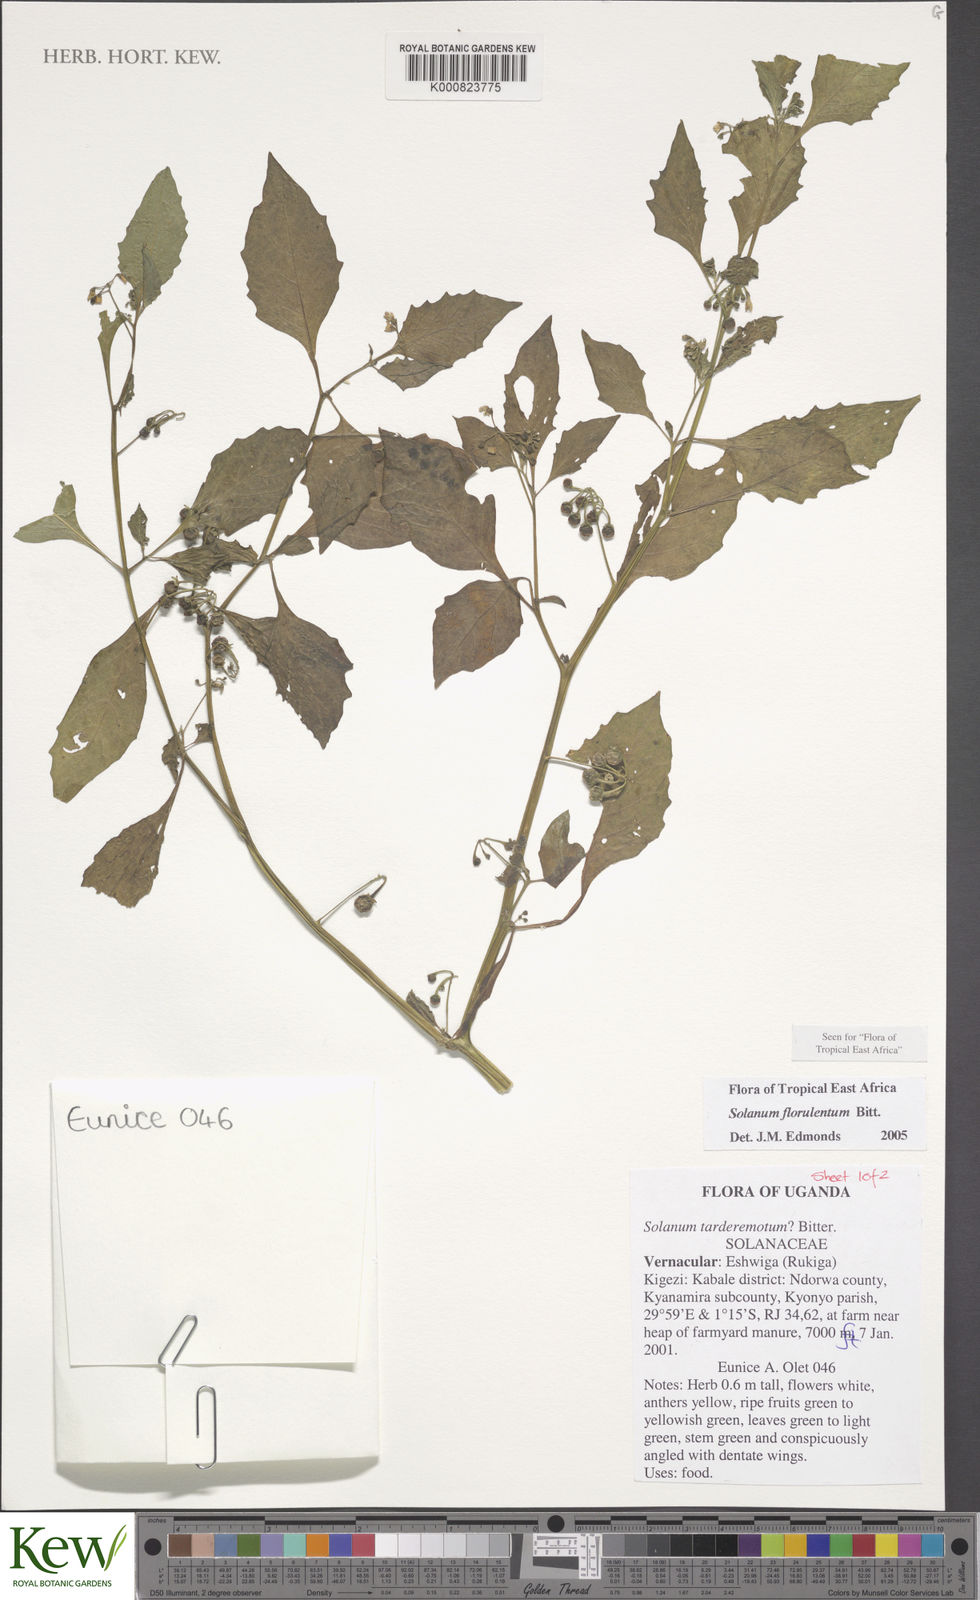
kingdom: Plantae
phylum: Tracheophyta
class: Magnoliopsida
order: Solanales
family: Solanaceae
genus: Solanum
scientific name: Solanum tarderemotum
